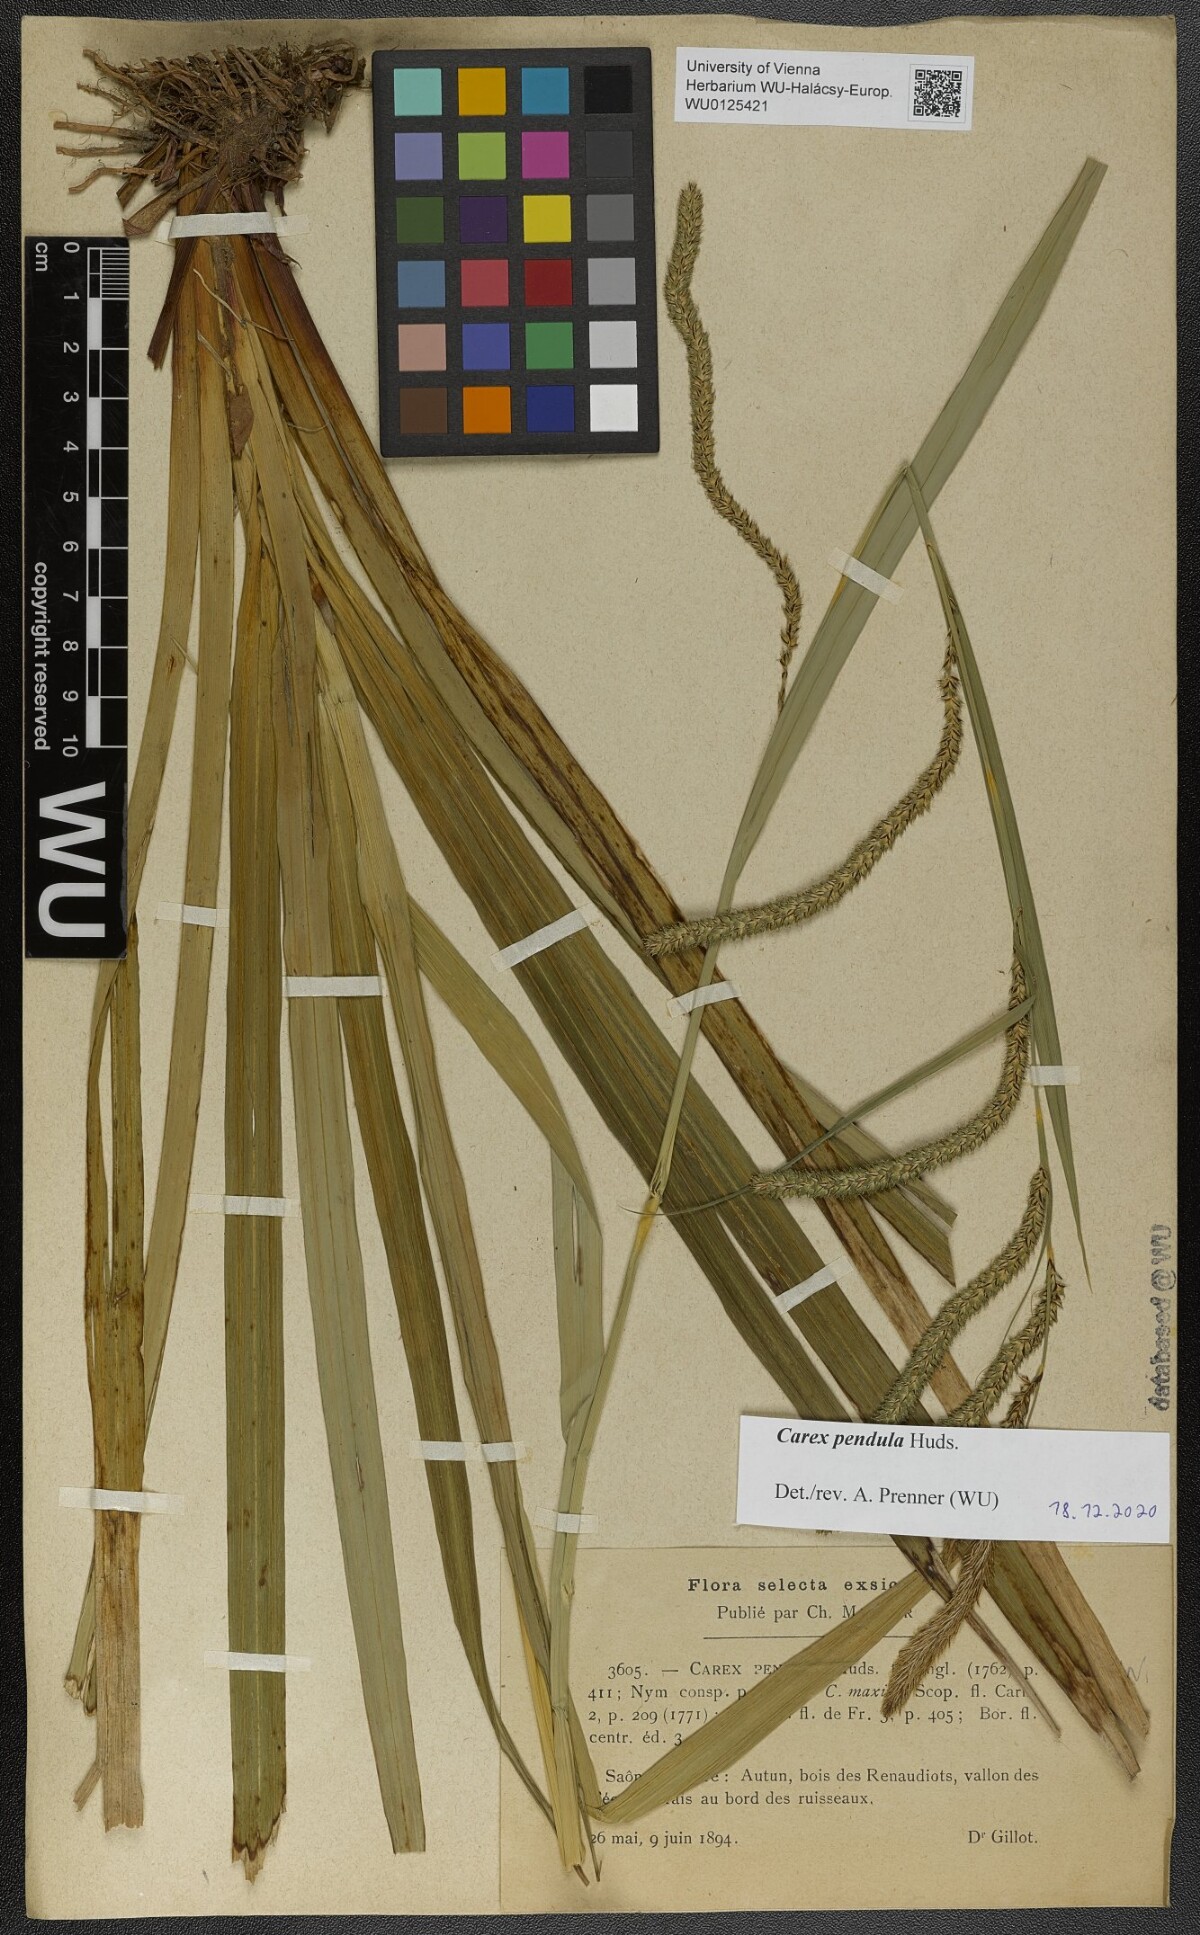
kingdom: Plantae
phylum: Tracheophyta
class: Liliopsida
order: Poales
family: Cyperaceae
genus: Carex
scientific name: Carex pendula
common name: Pendulous sedge
